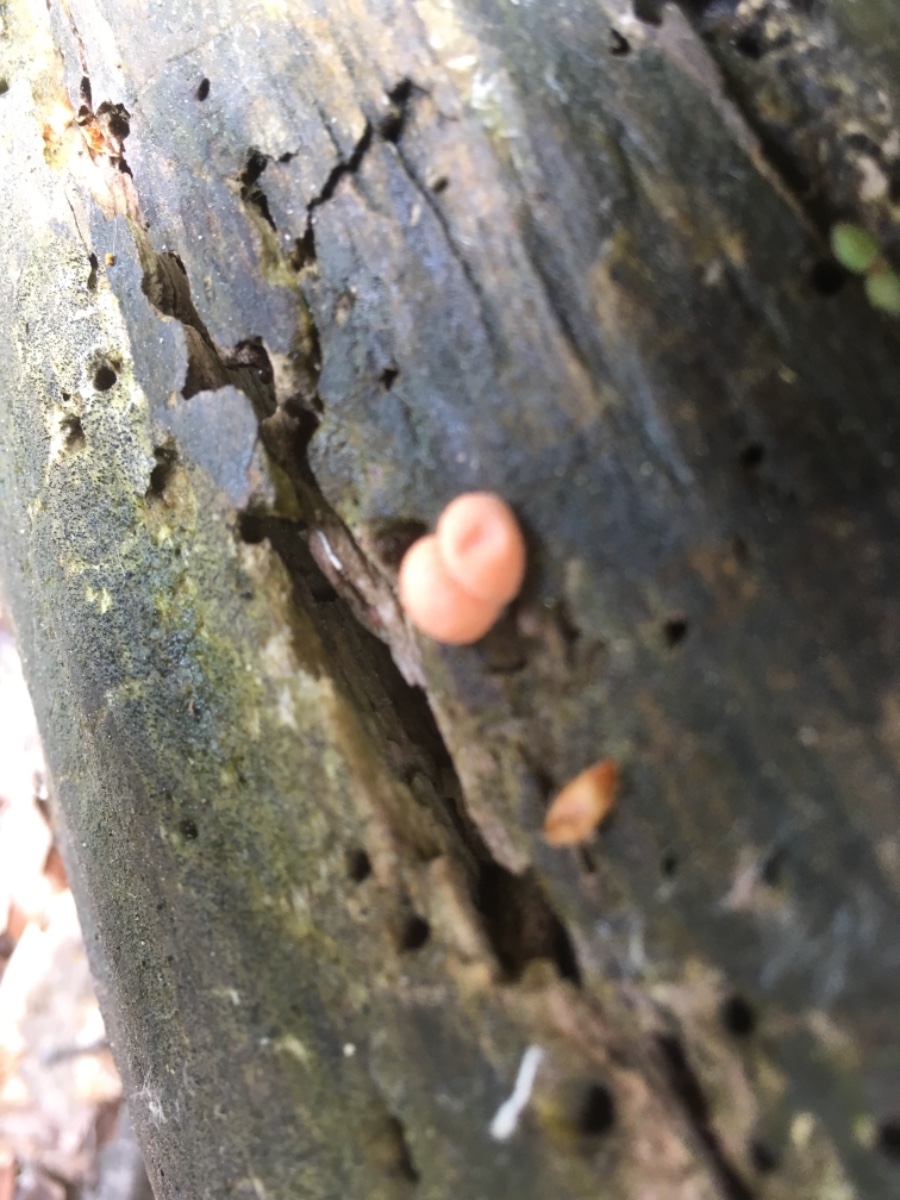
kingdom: Protozoa
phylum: Mycetozoa
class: Myxomycetes
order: Cribrariales
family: Tubiferaceae
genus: Lycogala
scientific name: Lycogala epidendrum
